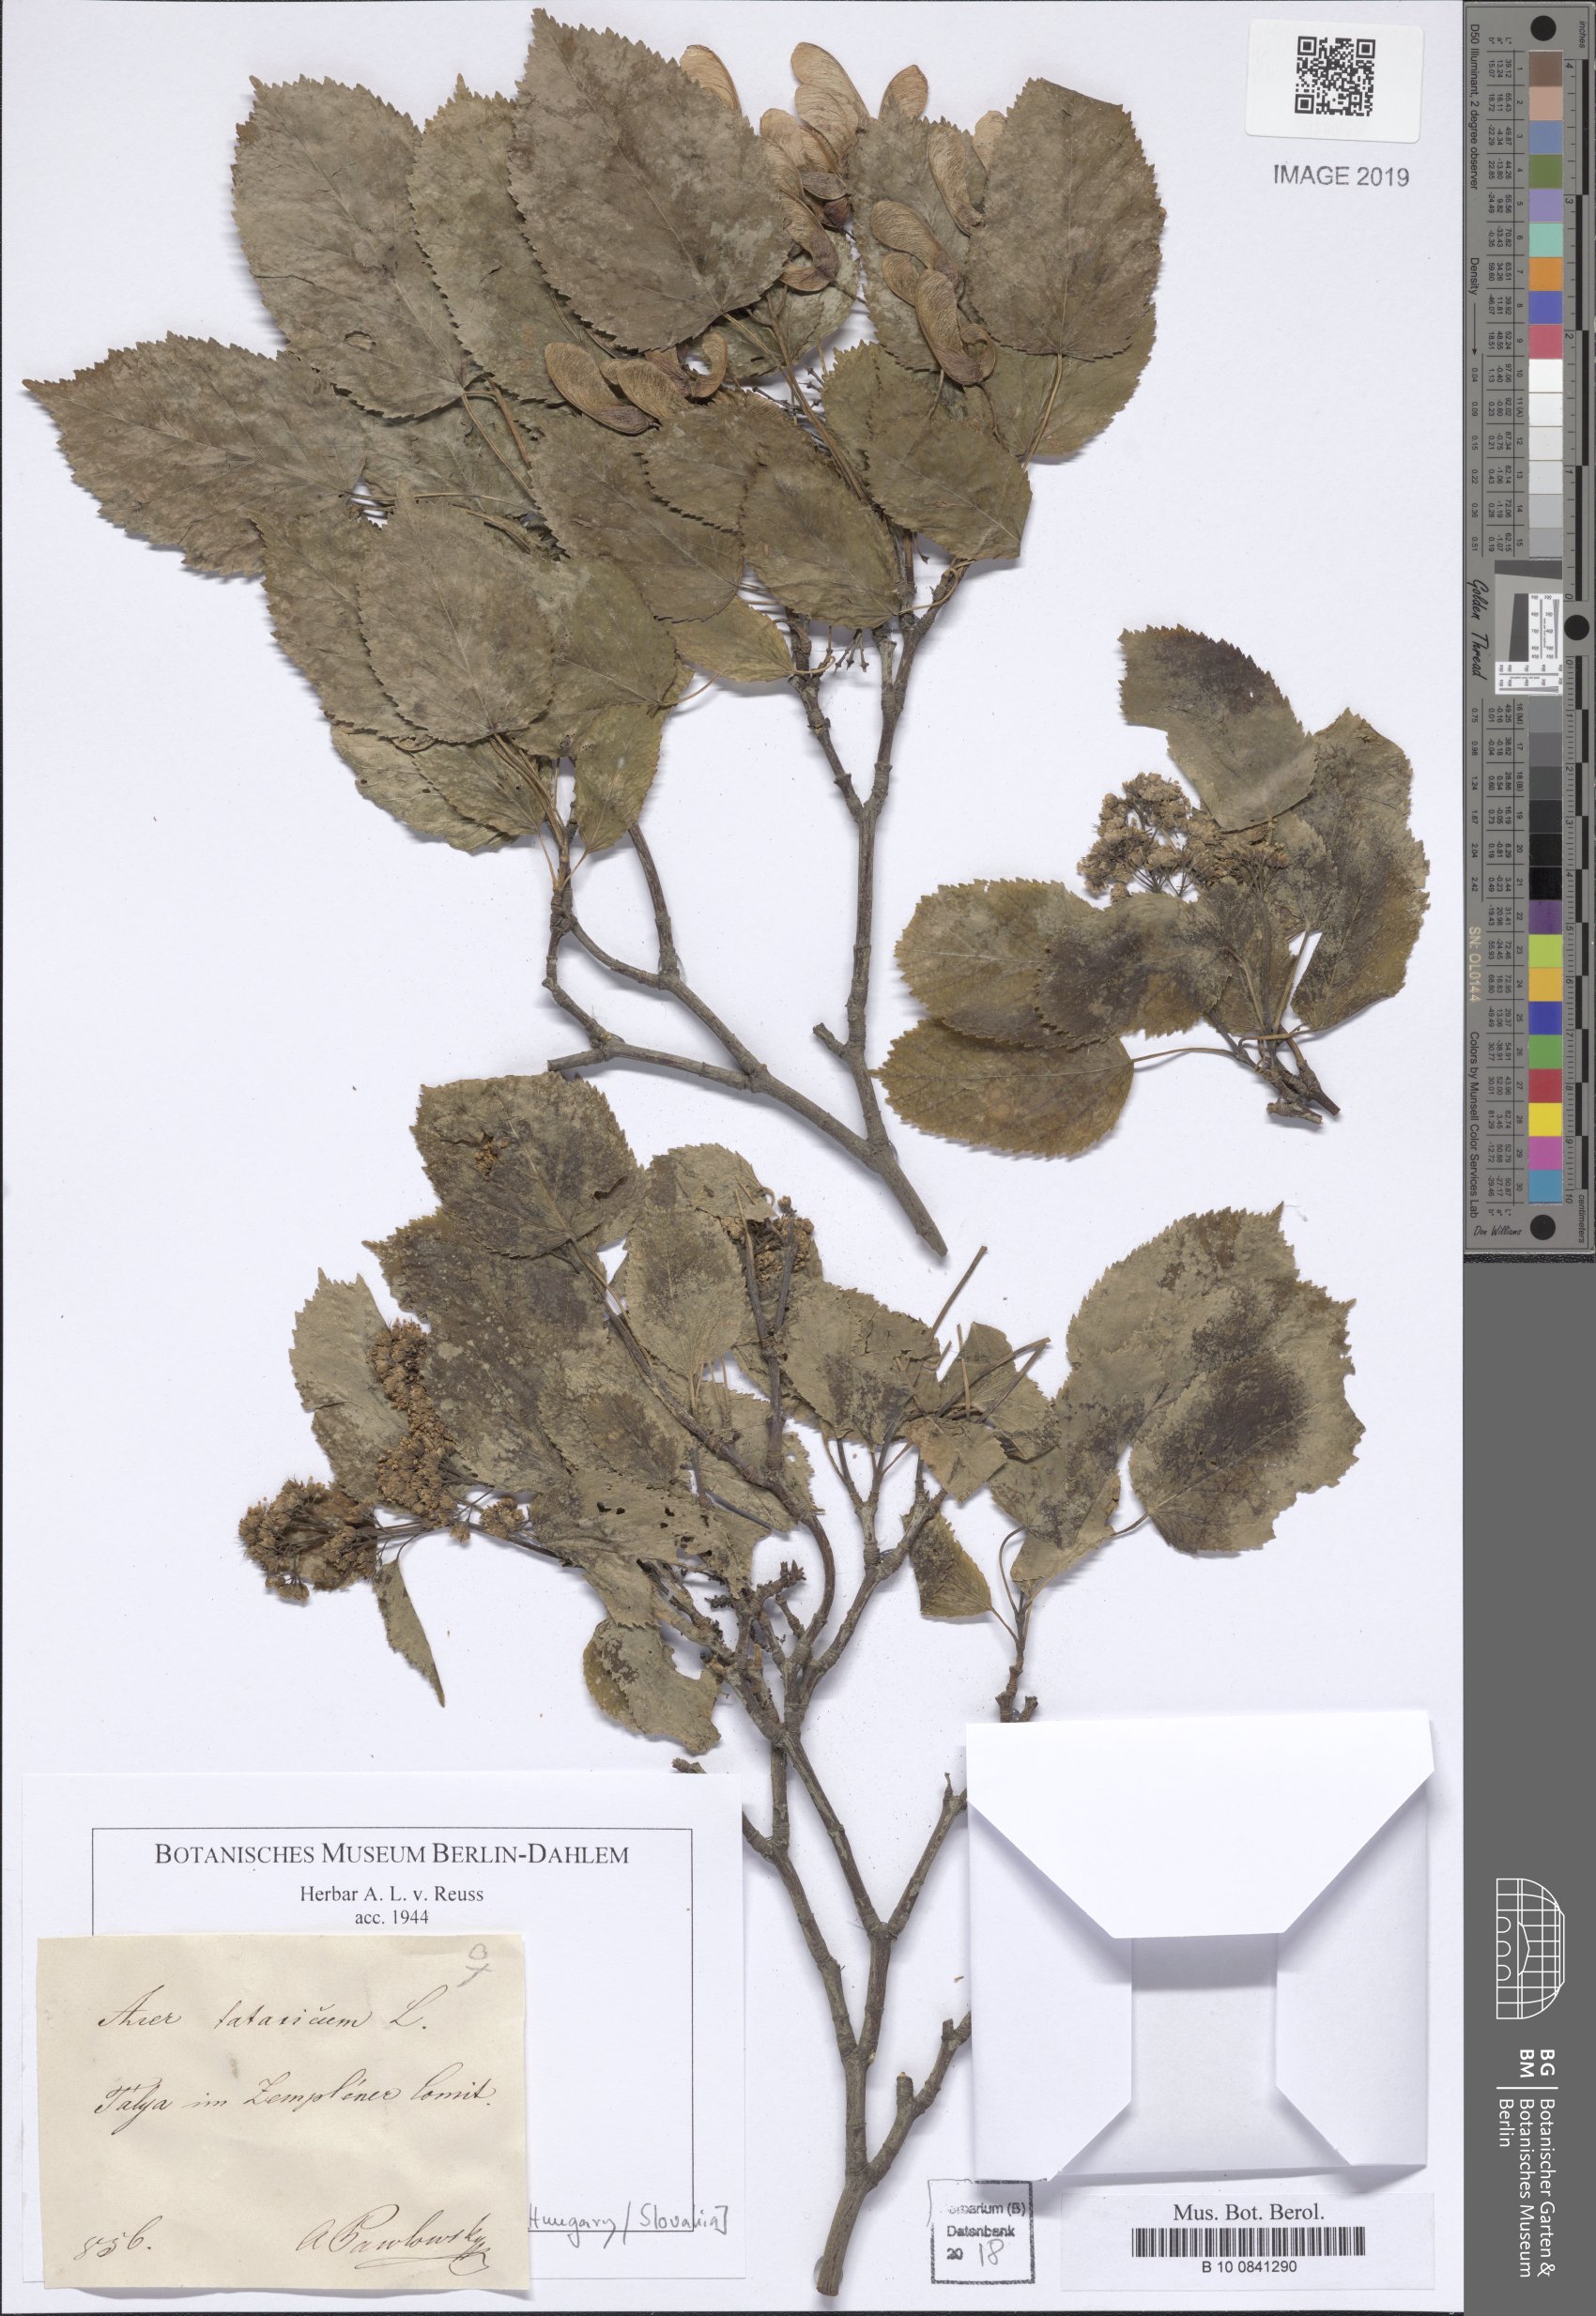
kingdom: Plantae
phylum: Tracheophyta
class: Magnoliopsida
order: Sapindales
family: Sapindaceae
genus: Acer
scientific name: Acer campestre
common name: Field maple
